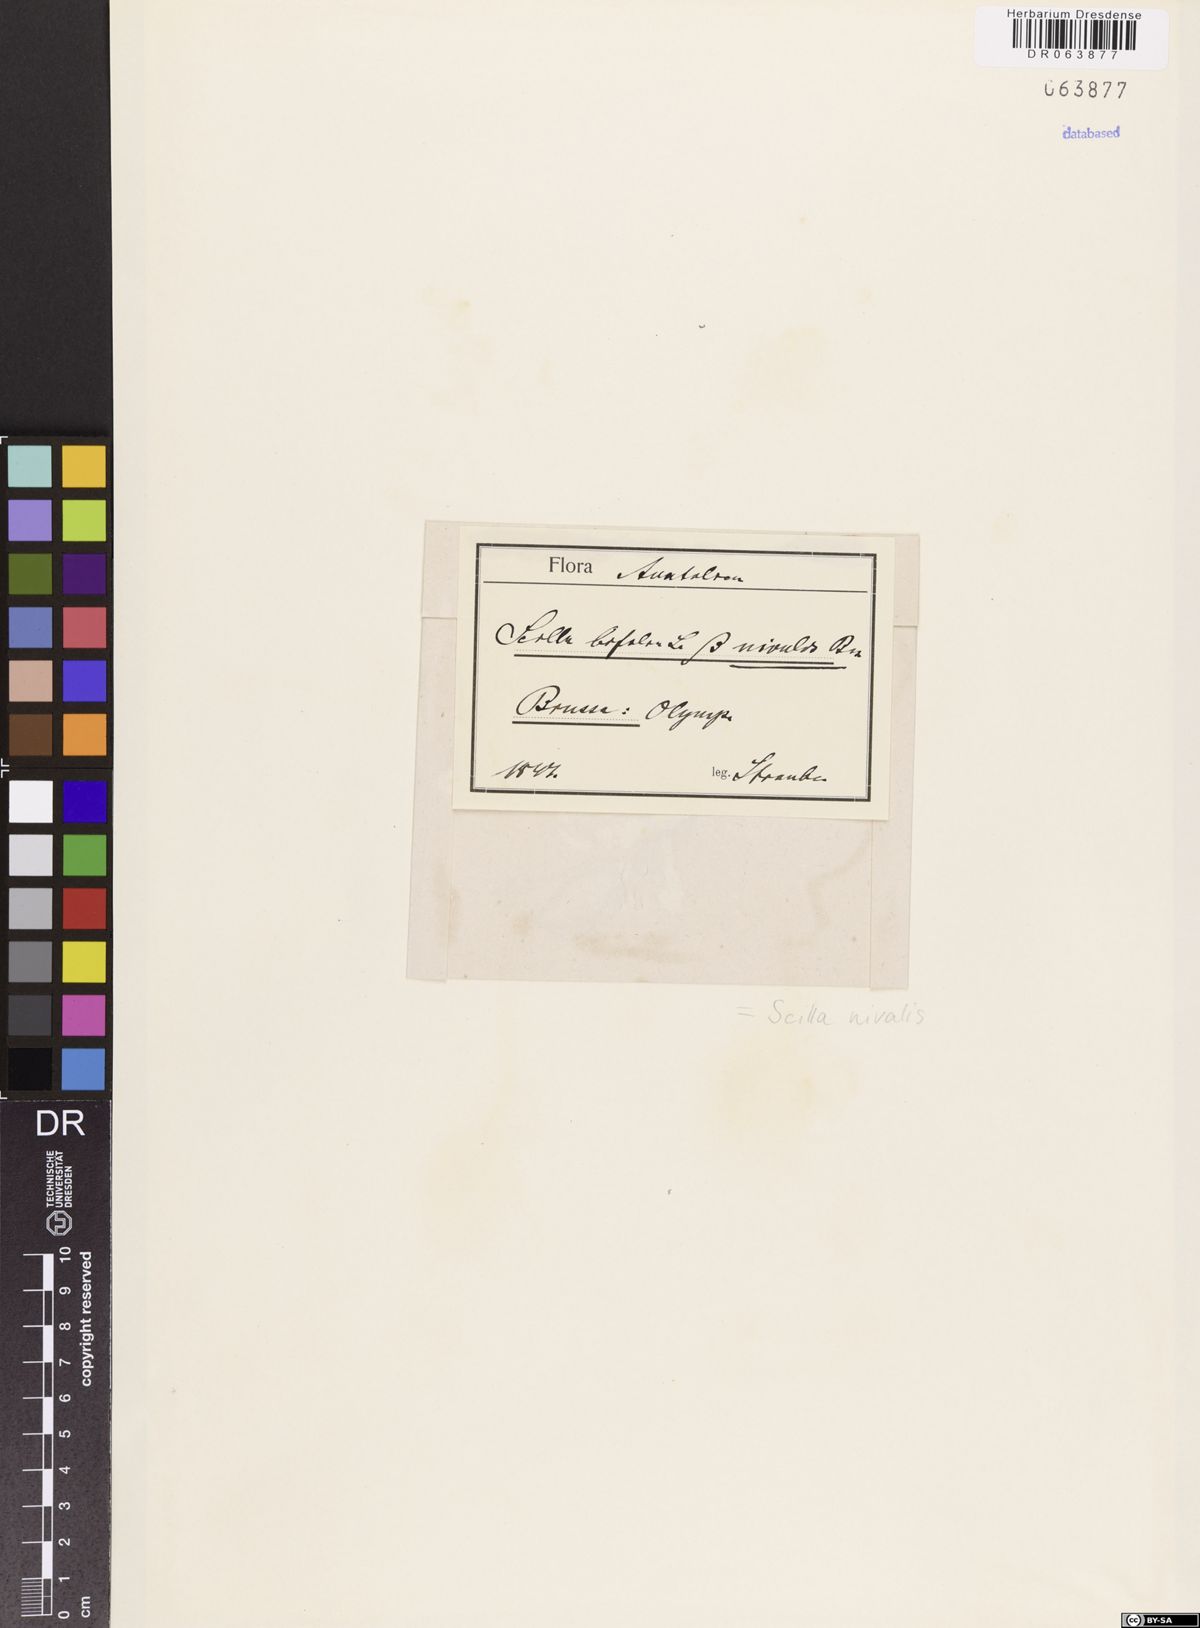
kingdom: Plantae
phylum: Tracheophyta
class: Liliopsida
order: Asparagales
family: Asparagaceae
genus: Scilla
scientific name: Scilla nivalis
